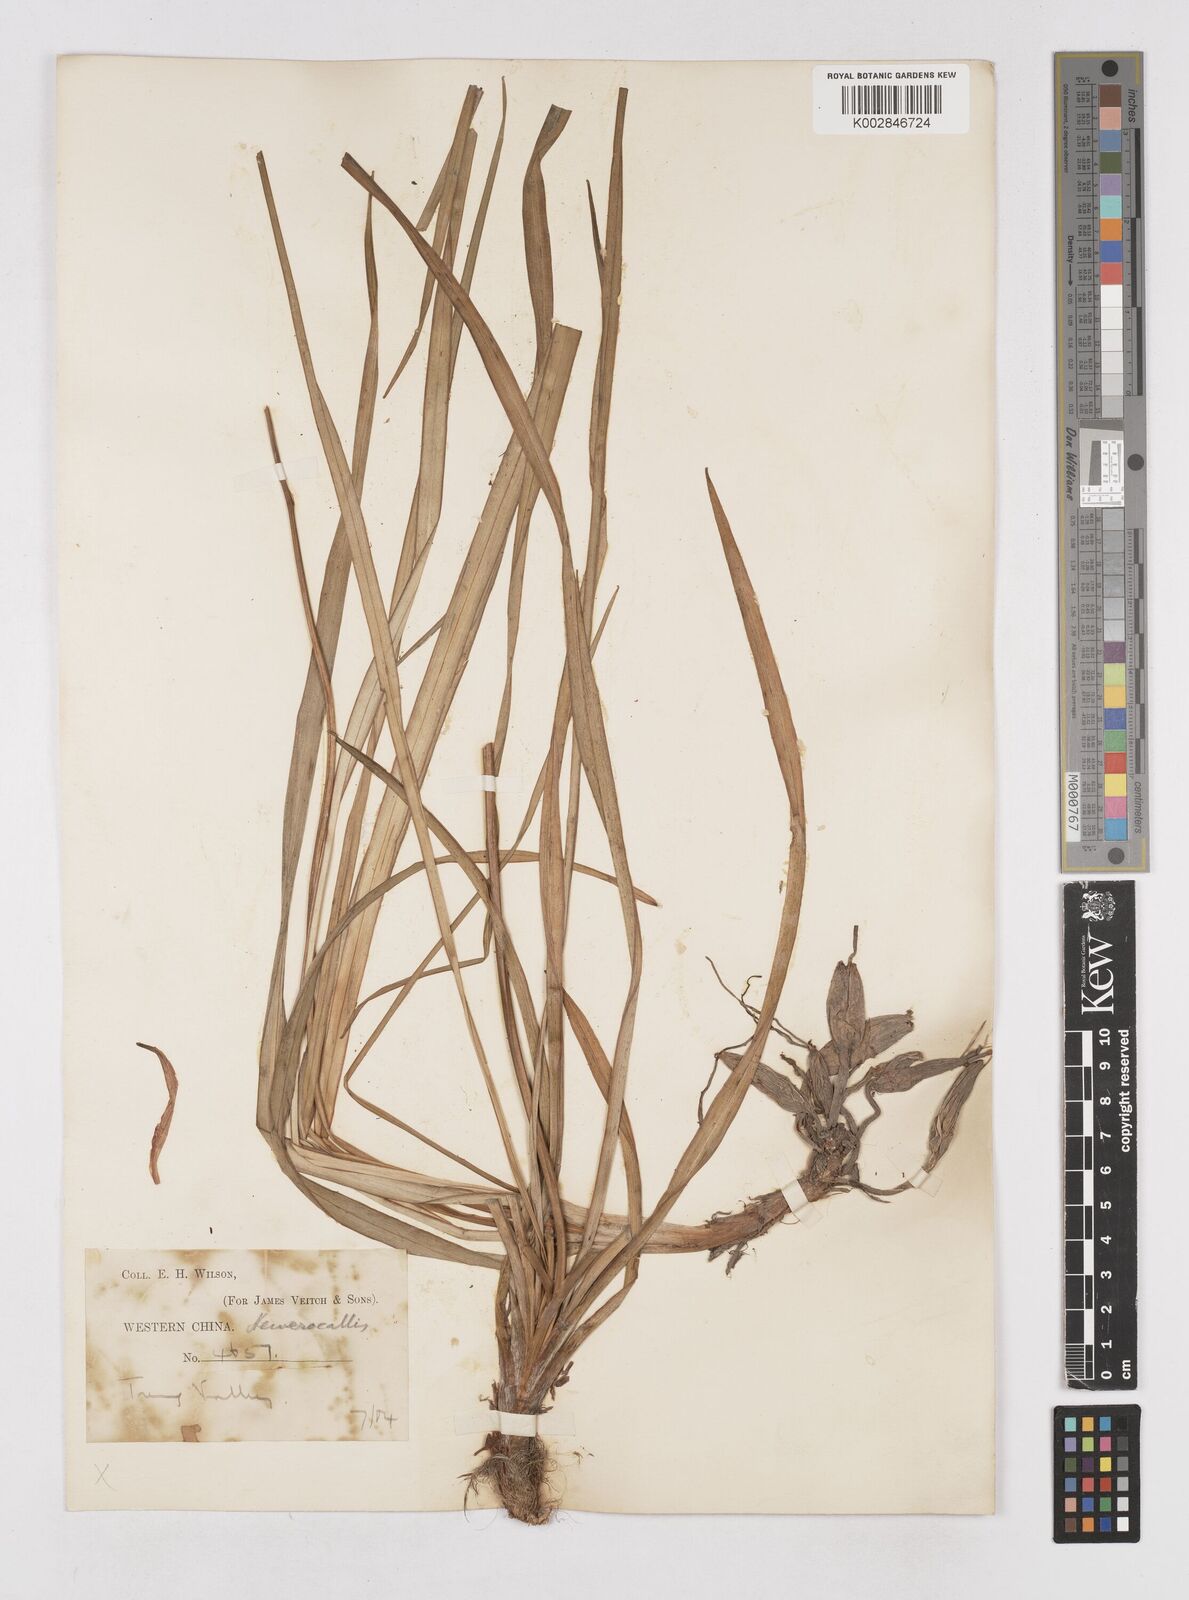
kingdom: Plantae
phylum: Tracheophyta
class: Liliopsida
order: Asparagales
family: Asphodelaceae
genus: Hemerocallis
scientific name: Hemerocallis
